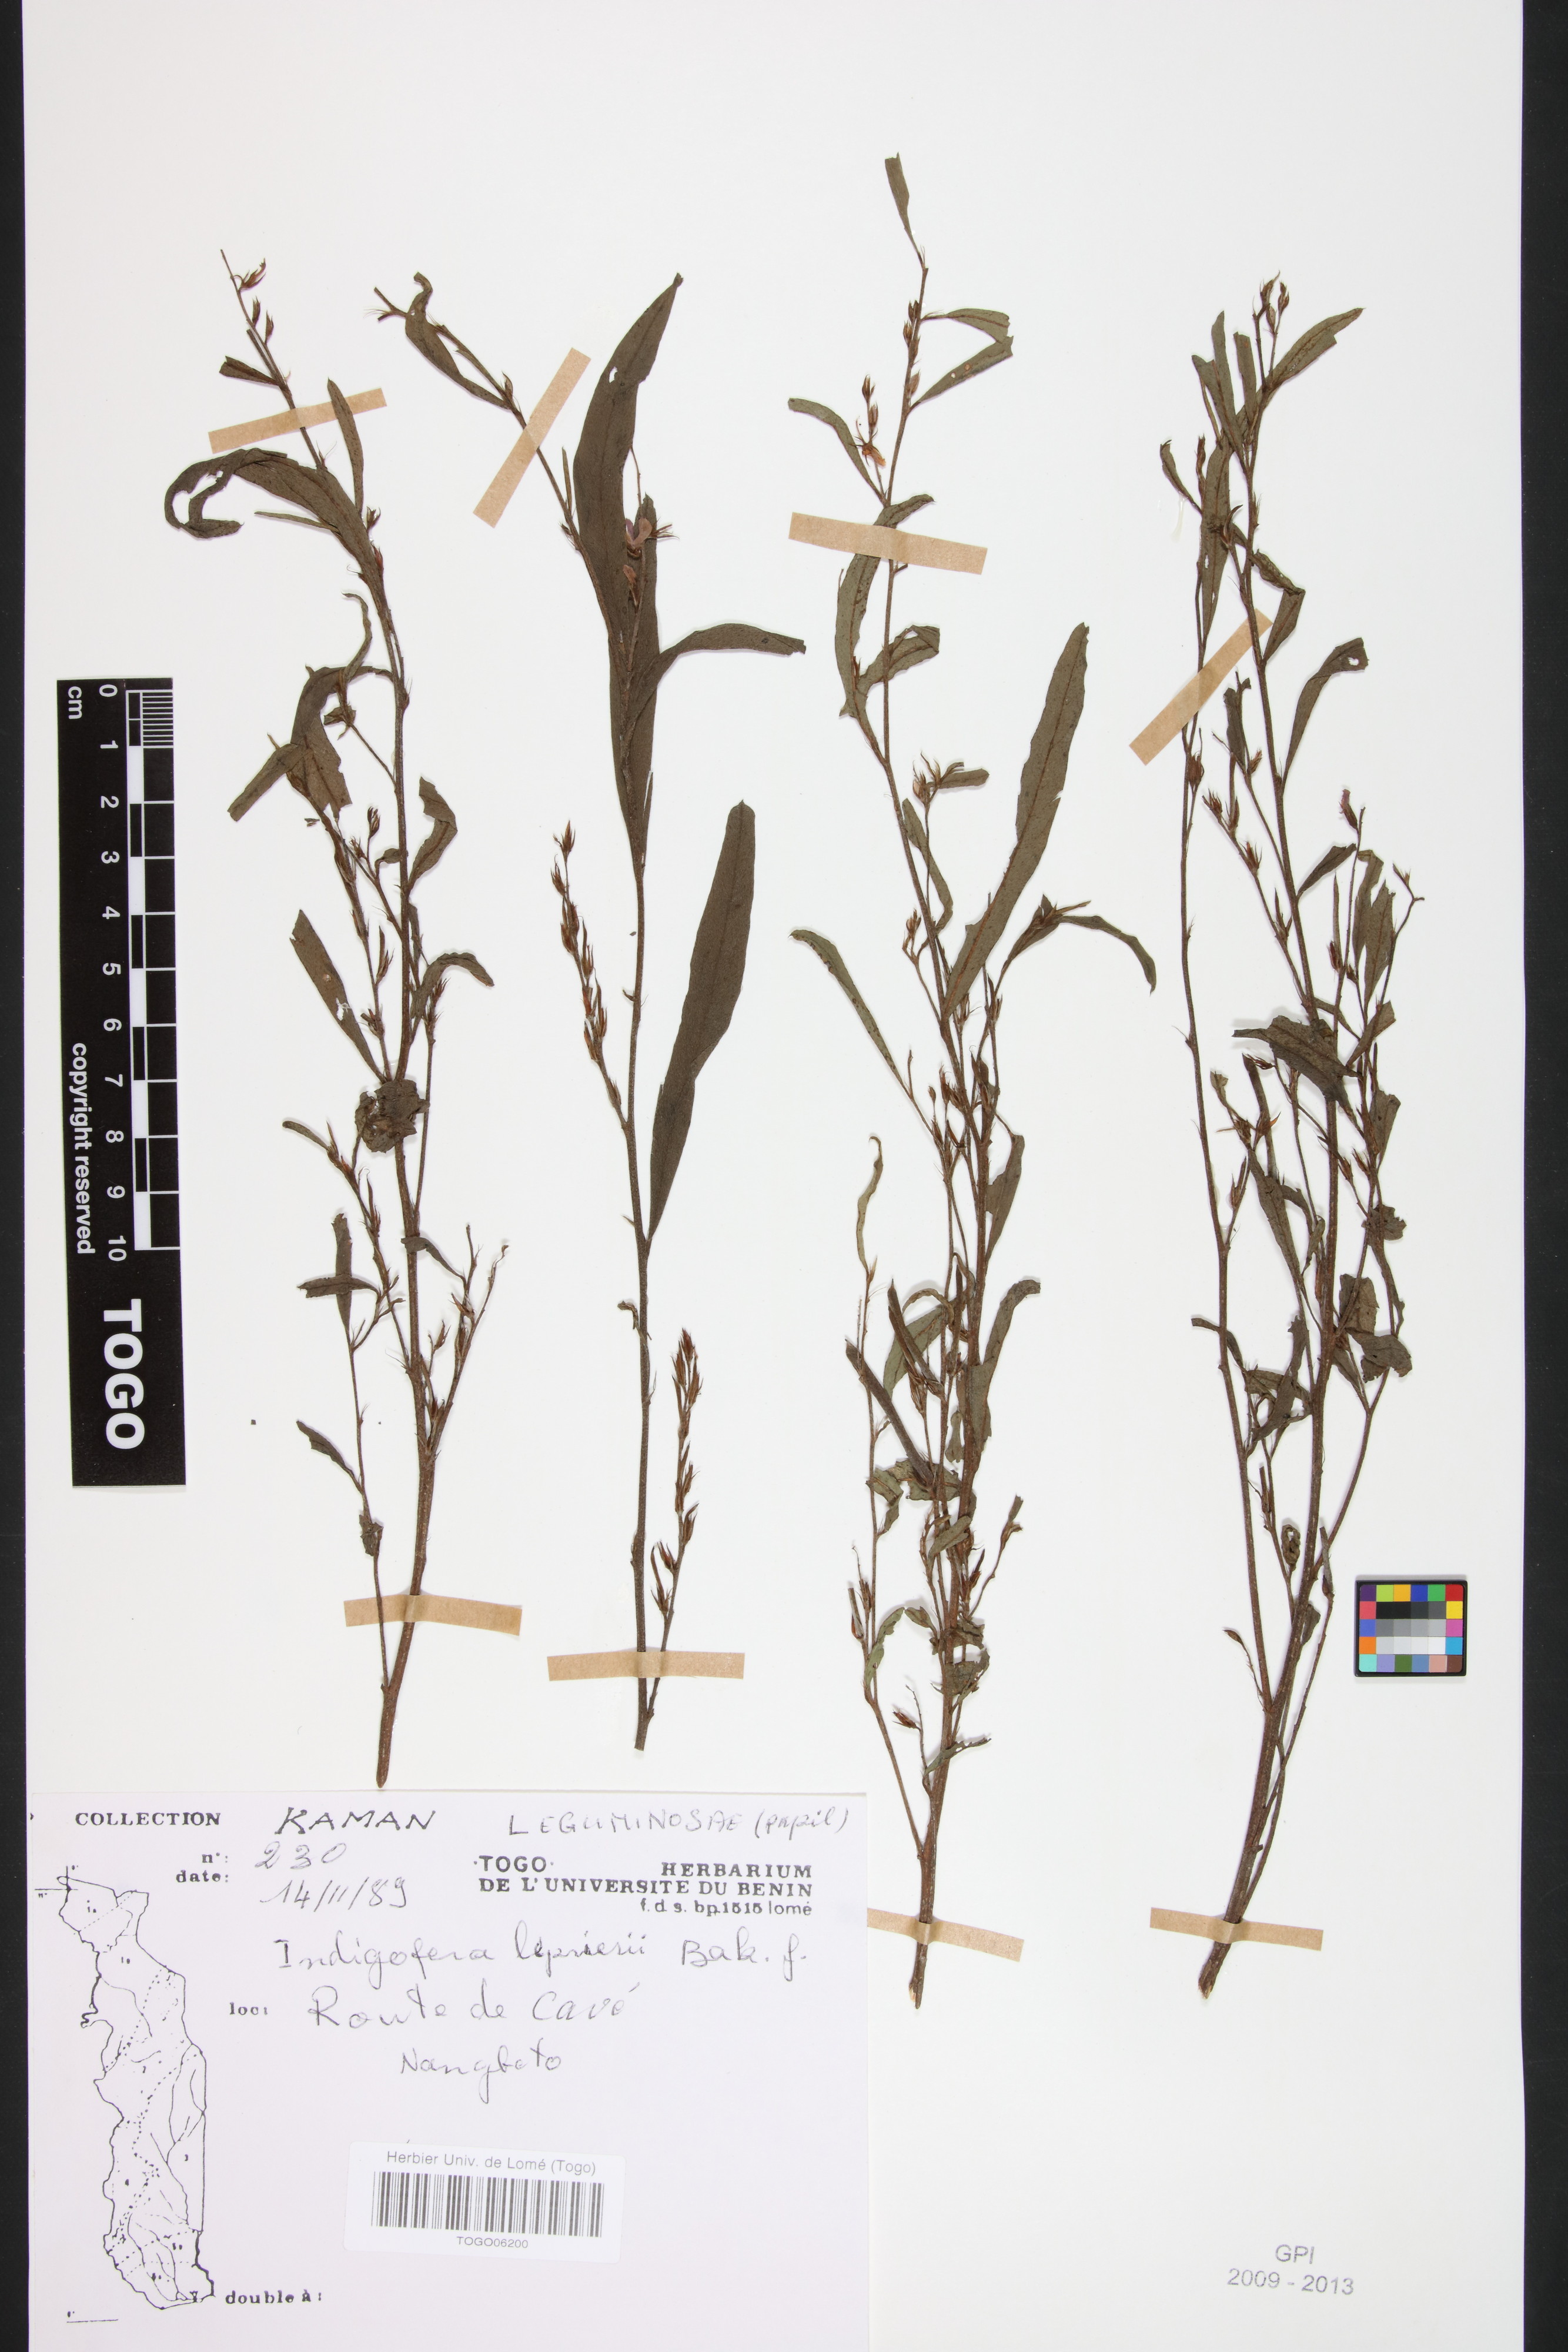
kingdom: Plantae
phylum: Tracheophyta
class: Magnoliopsida
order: Fabales
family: Fabaceae
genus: Indigofera
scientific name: Indigofera leprieurii
